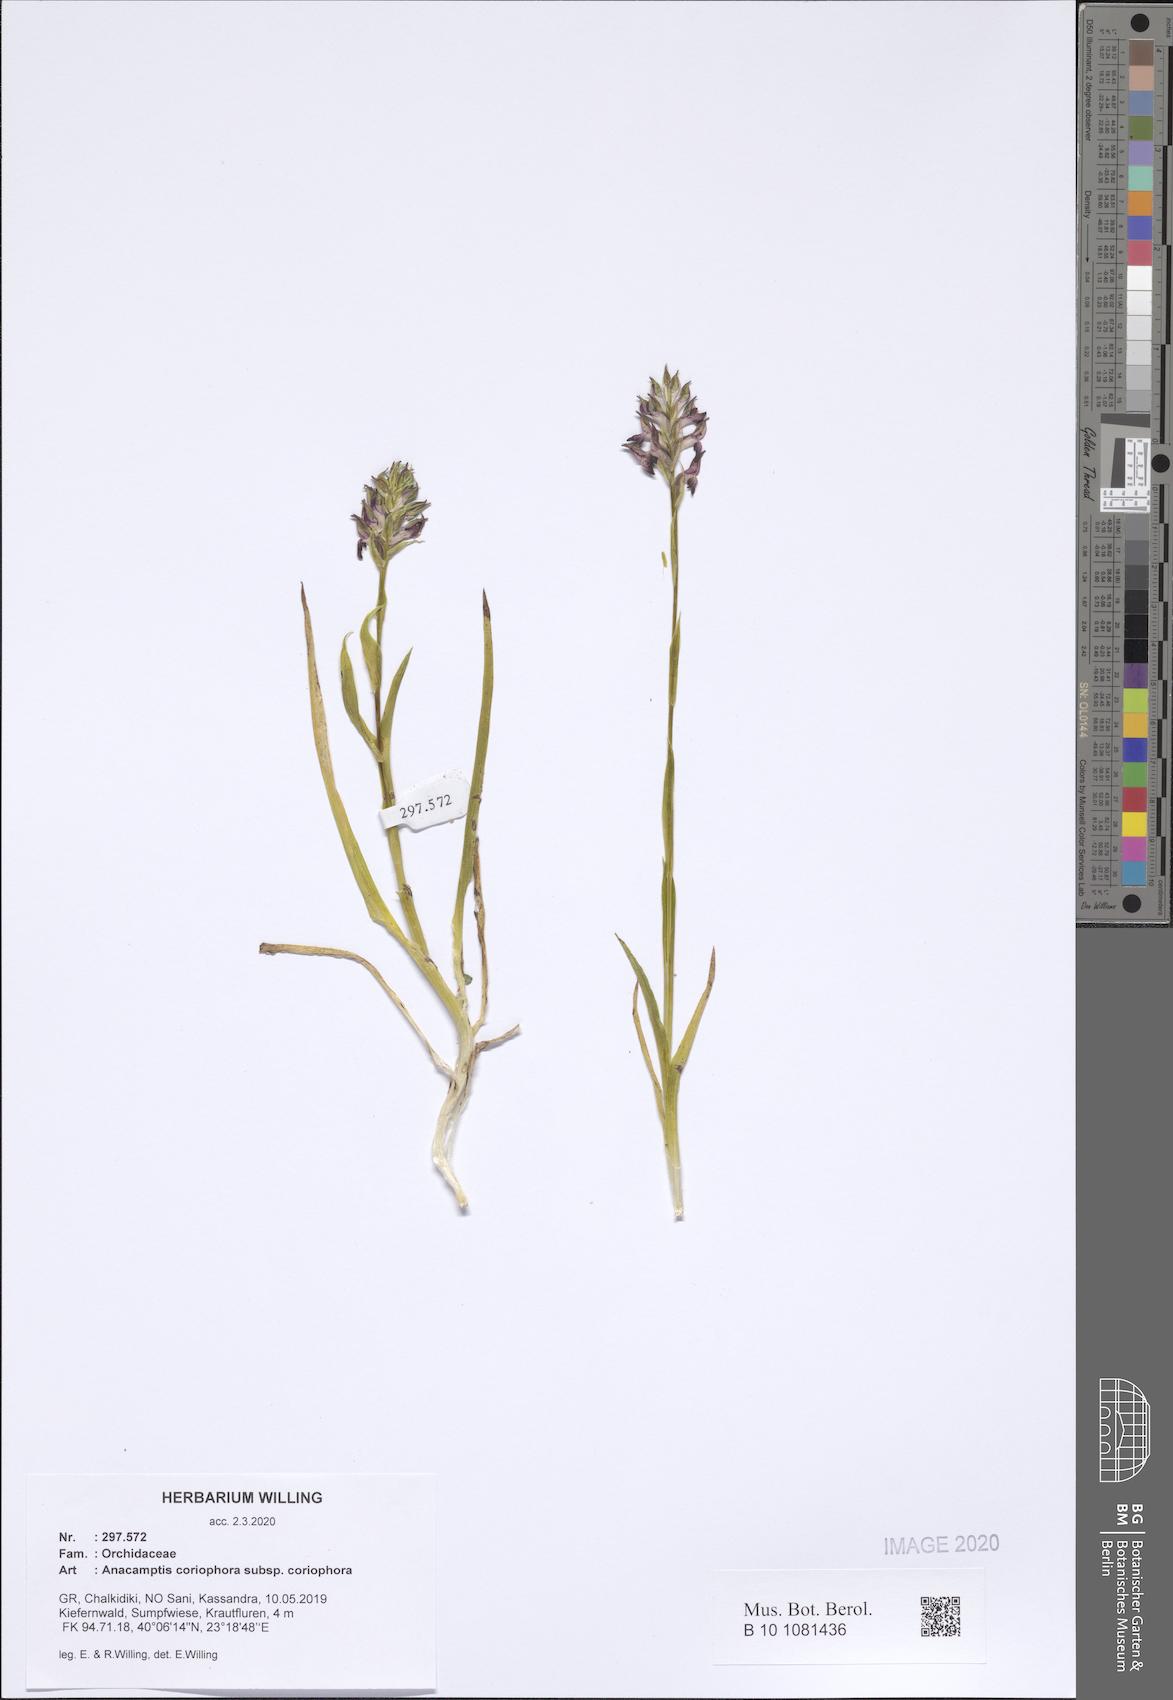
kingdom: Plantae
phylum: Tracheophyta
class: Liliopsida
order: Asparagales
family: Orchidaceae
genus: Anacamptis
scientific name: Anacamptis coriophora
